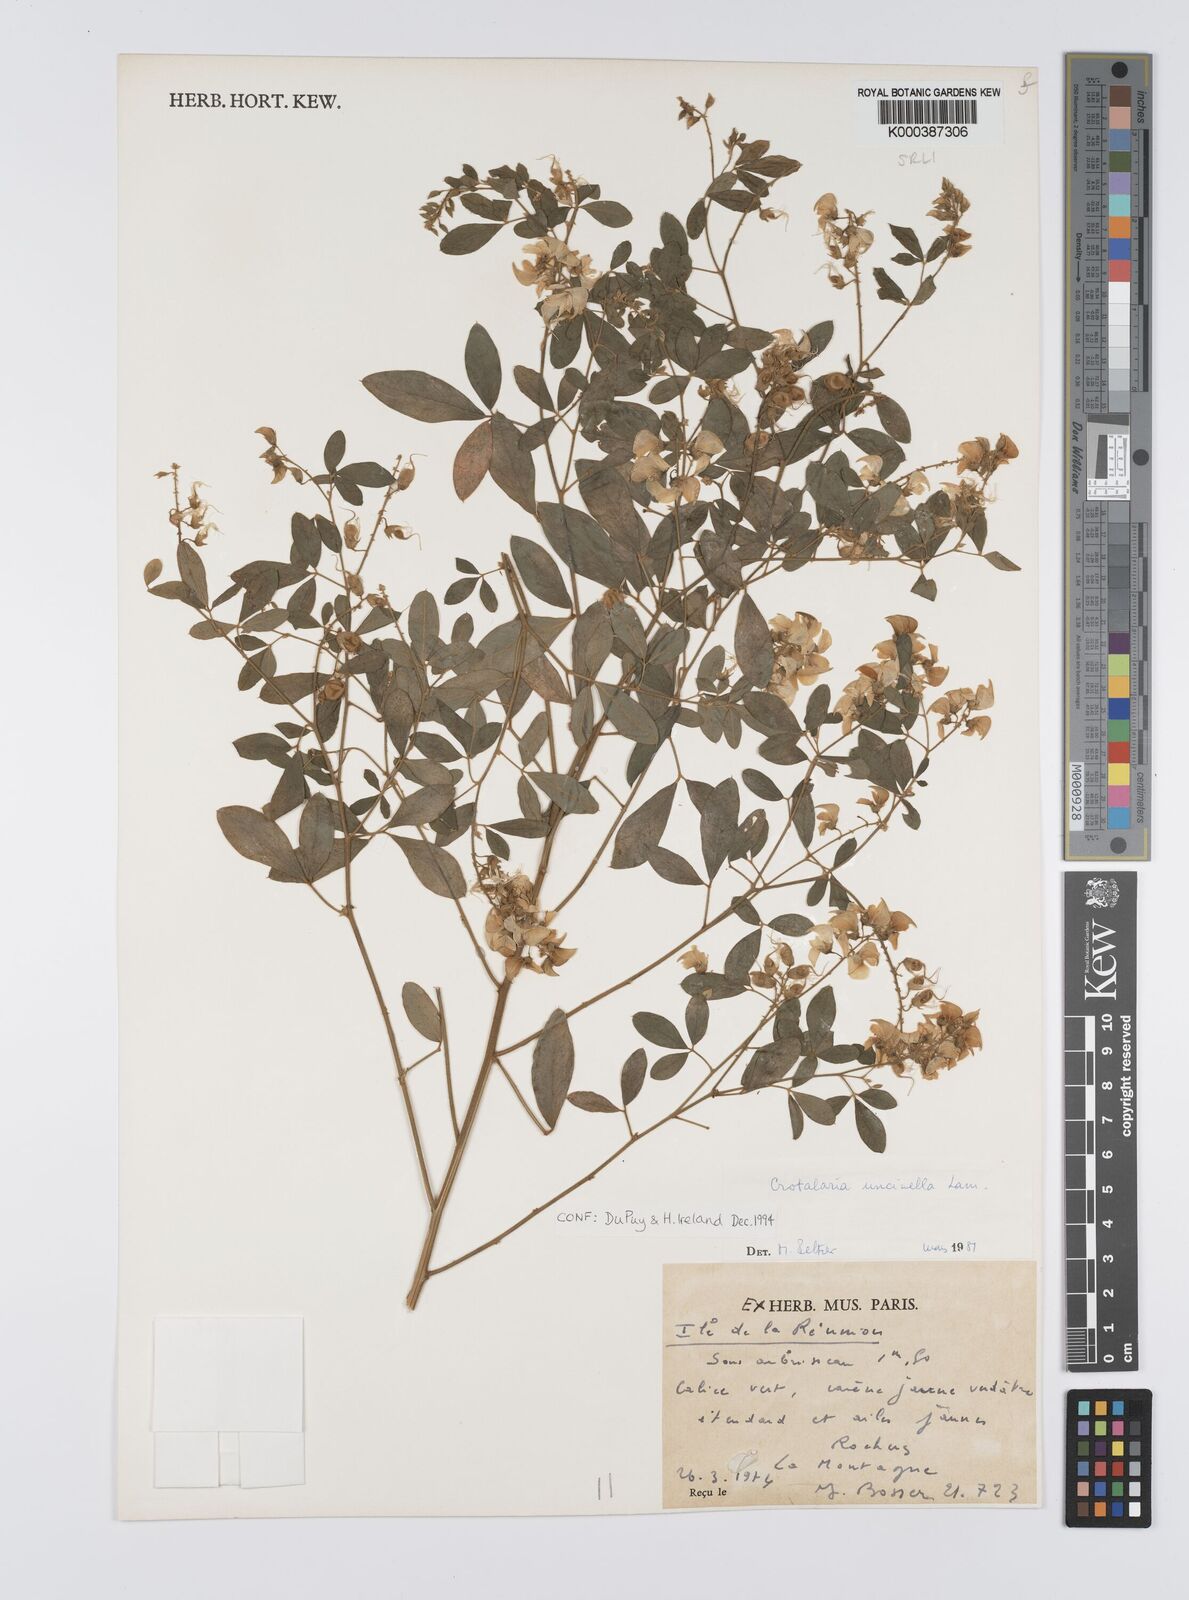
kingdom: Plantae
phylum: Tracheophyta
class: Magnoliopsida
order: Fabales
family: Fabaceae
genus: Crotalaria
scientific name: Crotalaria uncinella
